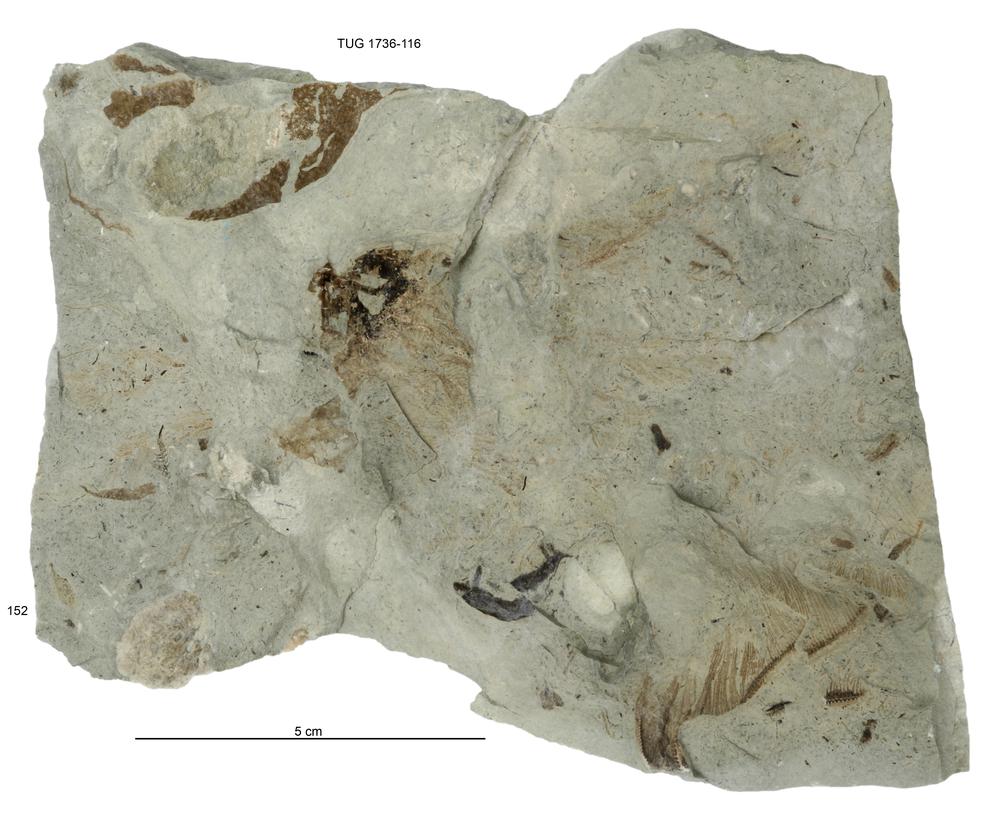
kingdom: Animalia
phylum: Echinodermata
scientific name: Echinodermata
